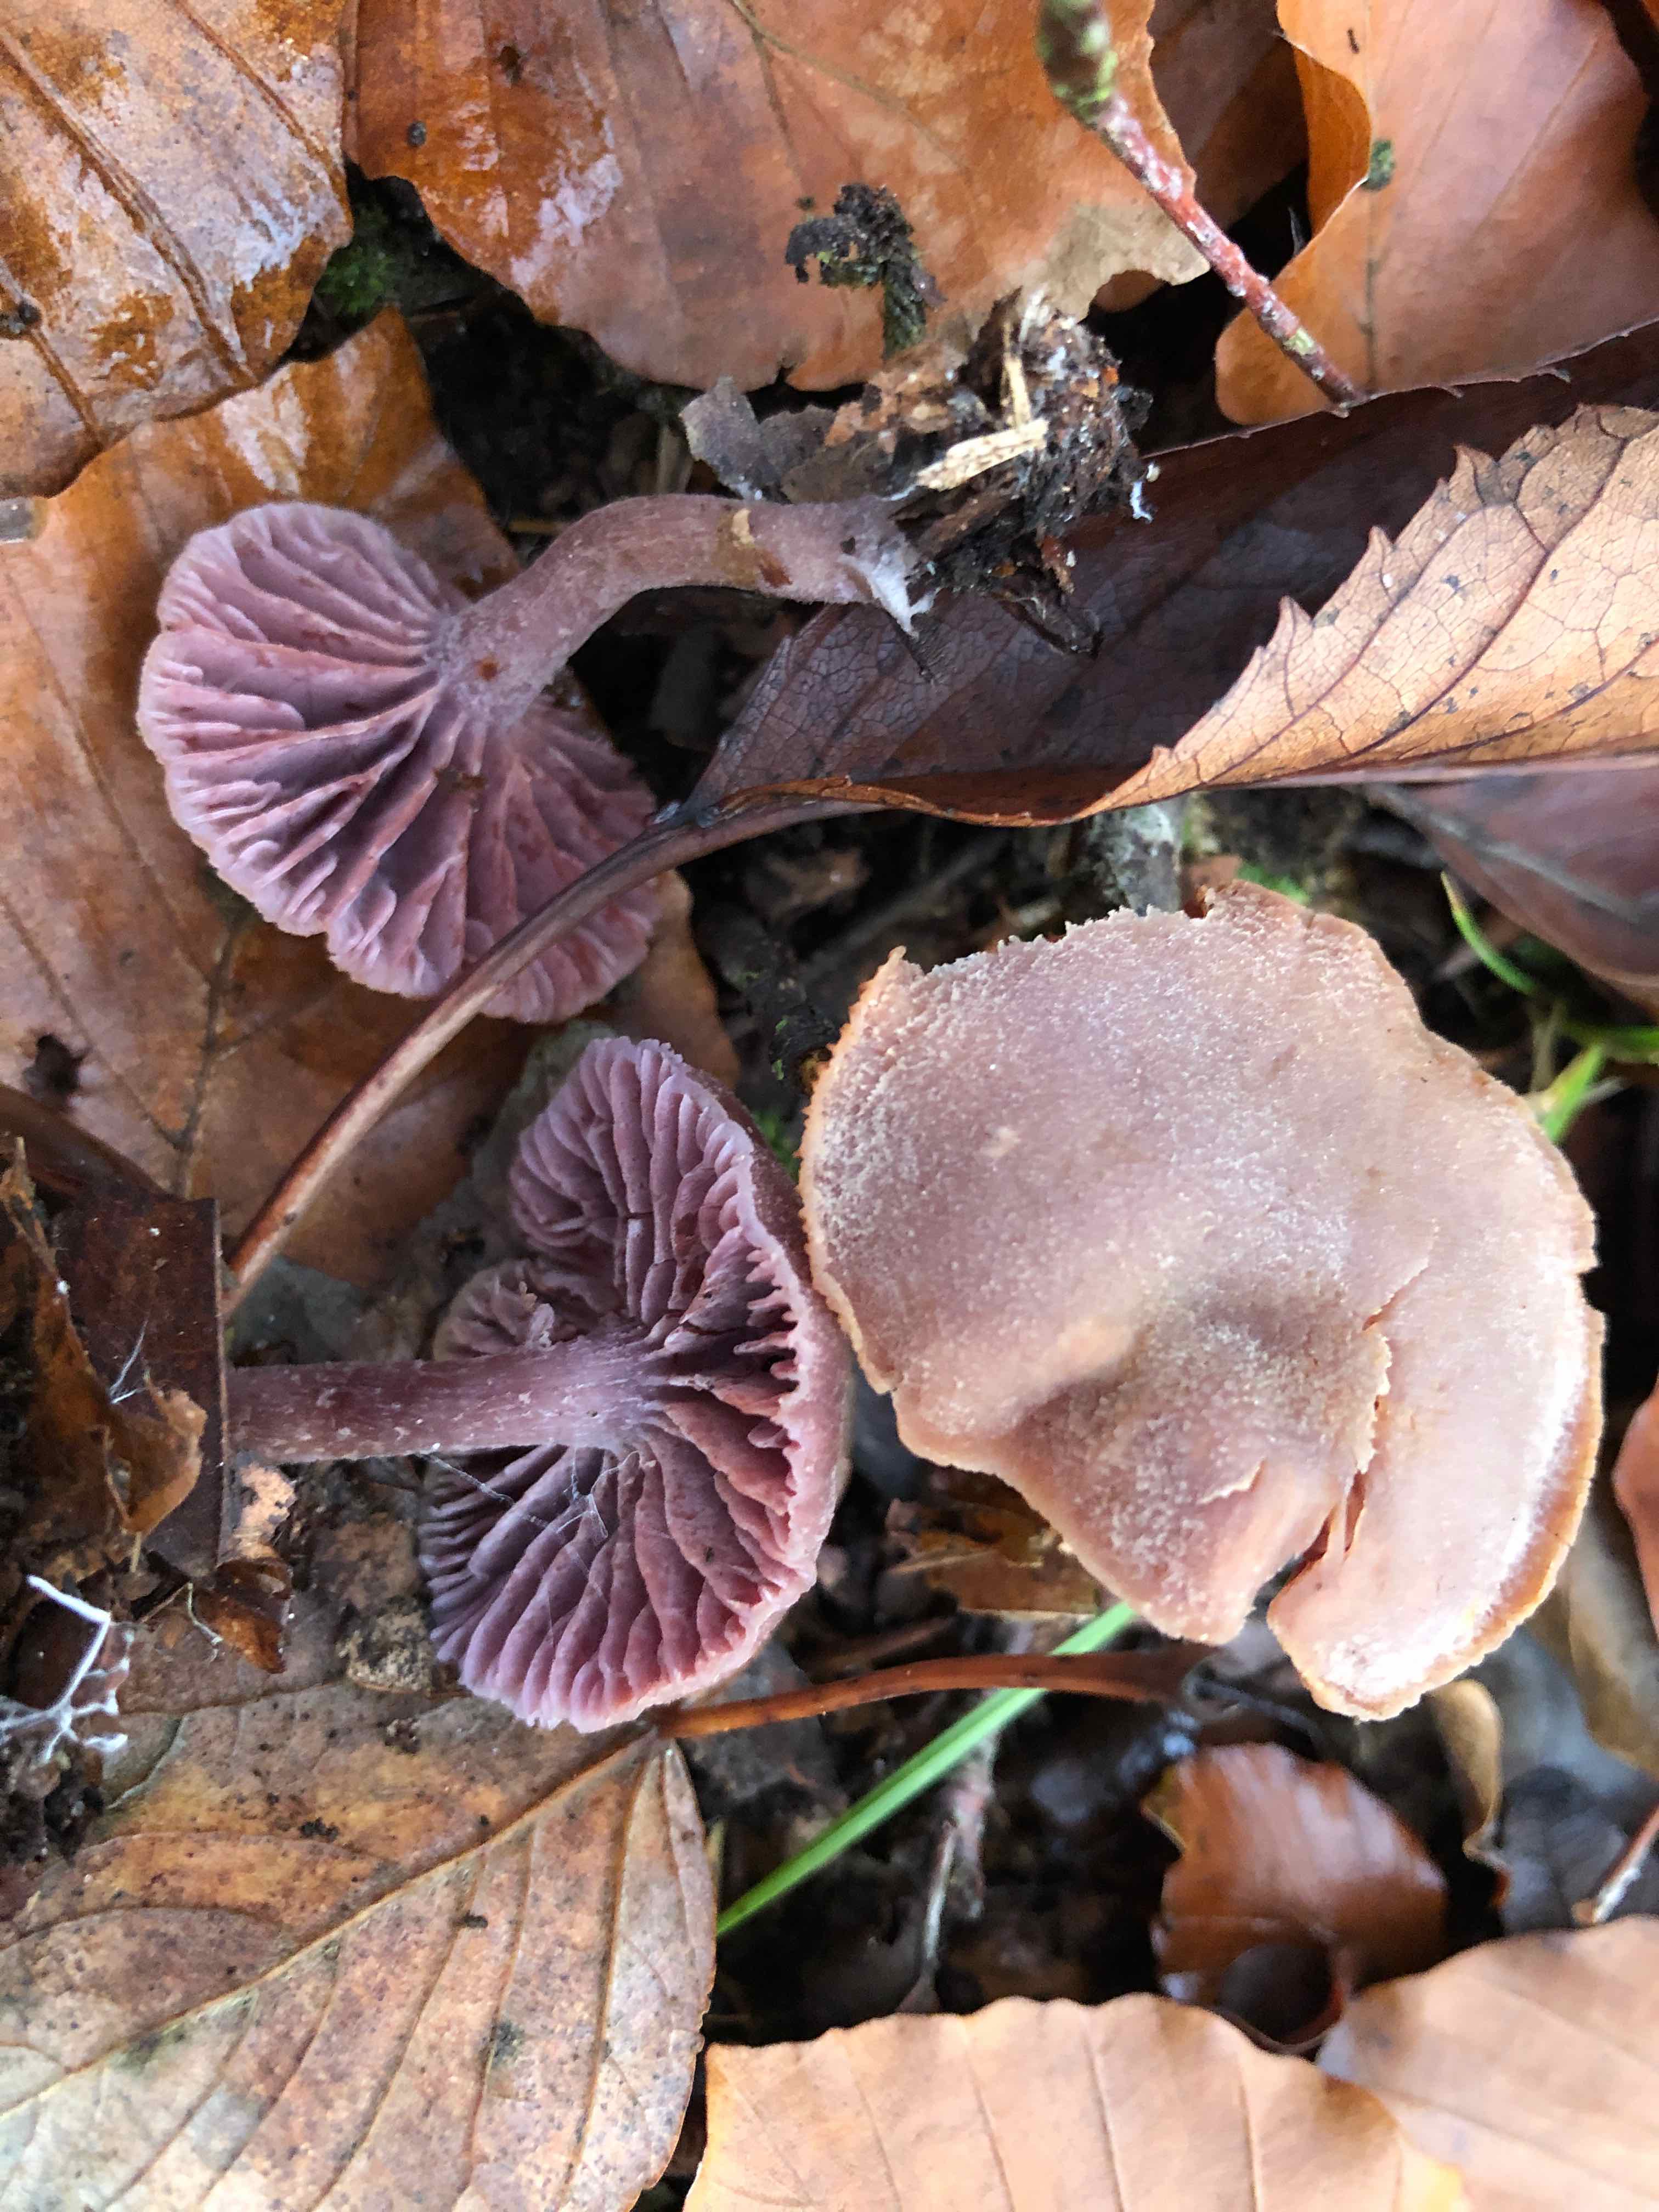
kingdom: Fungi
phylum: Basidiomycota
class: Agaricomycetes
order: Agaricales
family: Hydnangiaceae
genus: Laccaria
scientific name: Laccaria amethystina
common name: violet ametysthat
